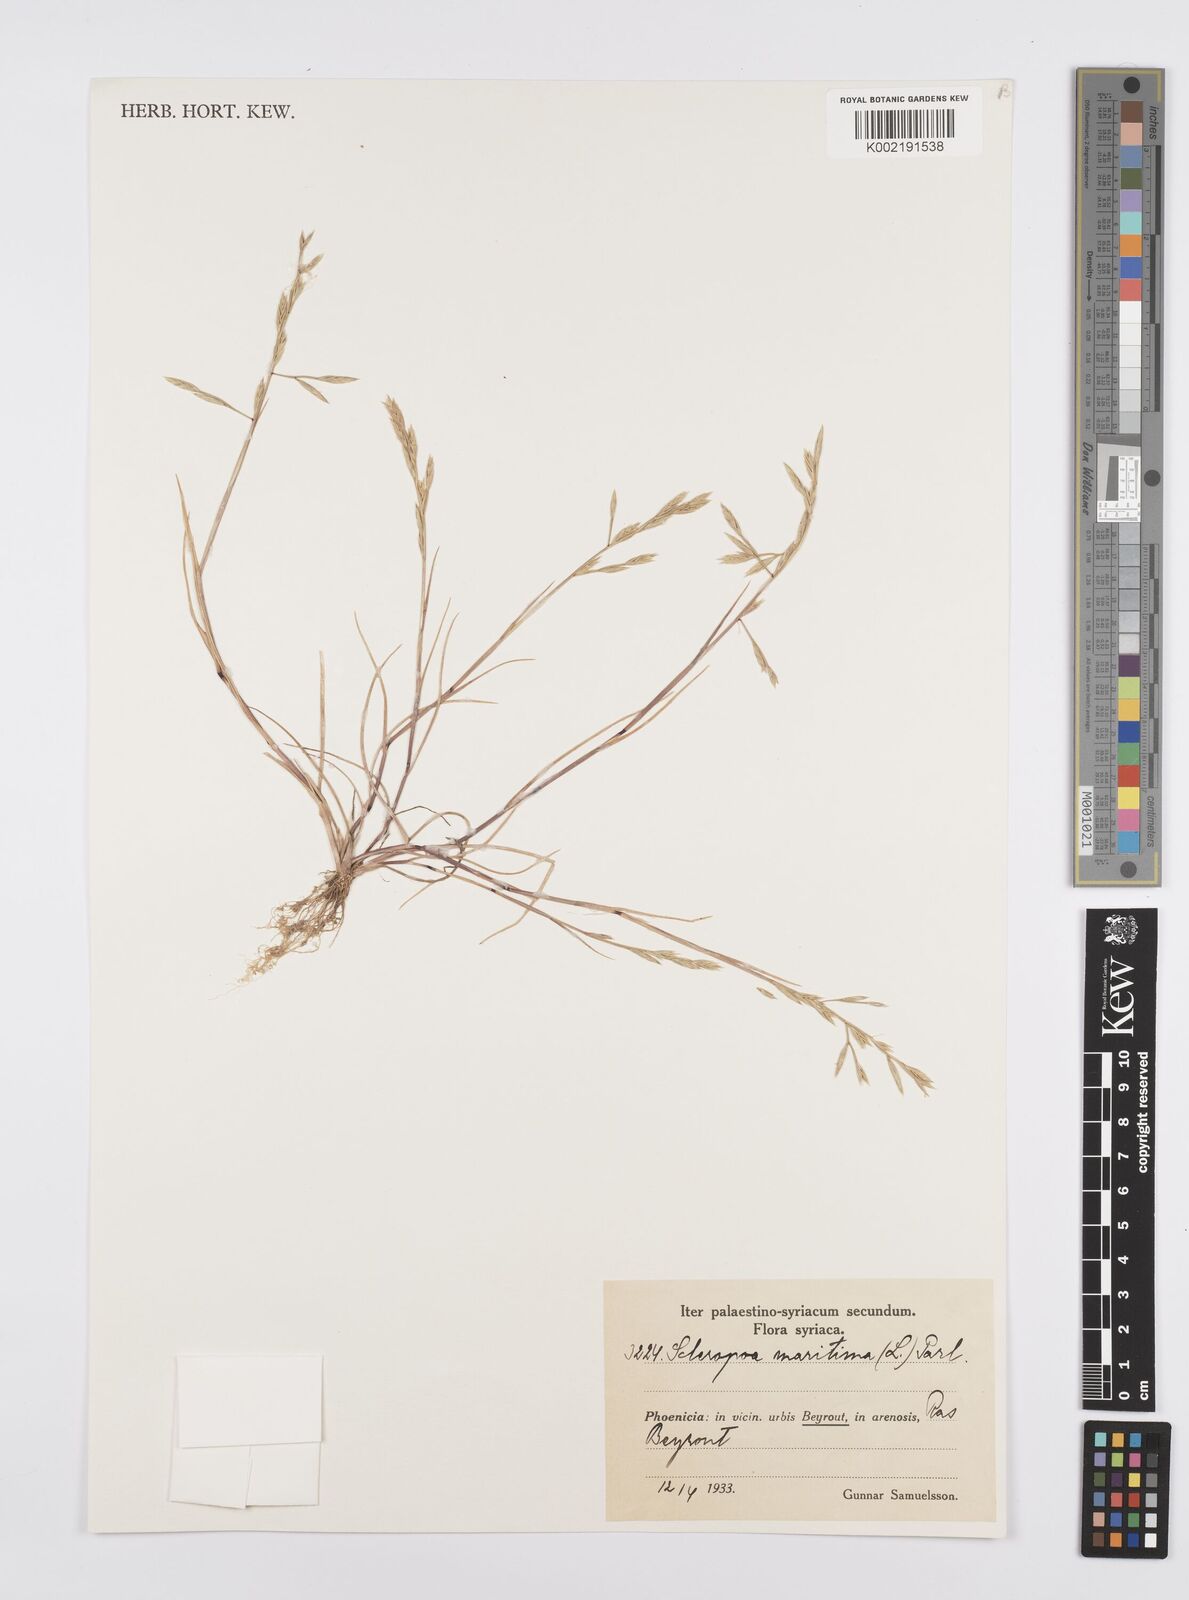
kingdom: Plantae
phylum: Tracheophyta
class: Liliopsida
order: Poales
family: Poaceae
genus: Catapodium
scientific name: Catapodium marinum
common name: Sea fern-grass
